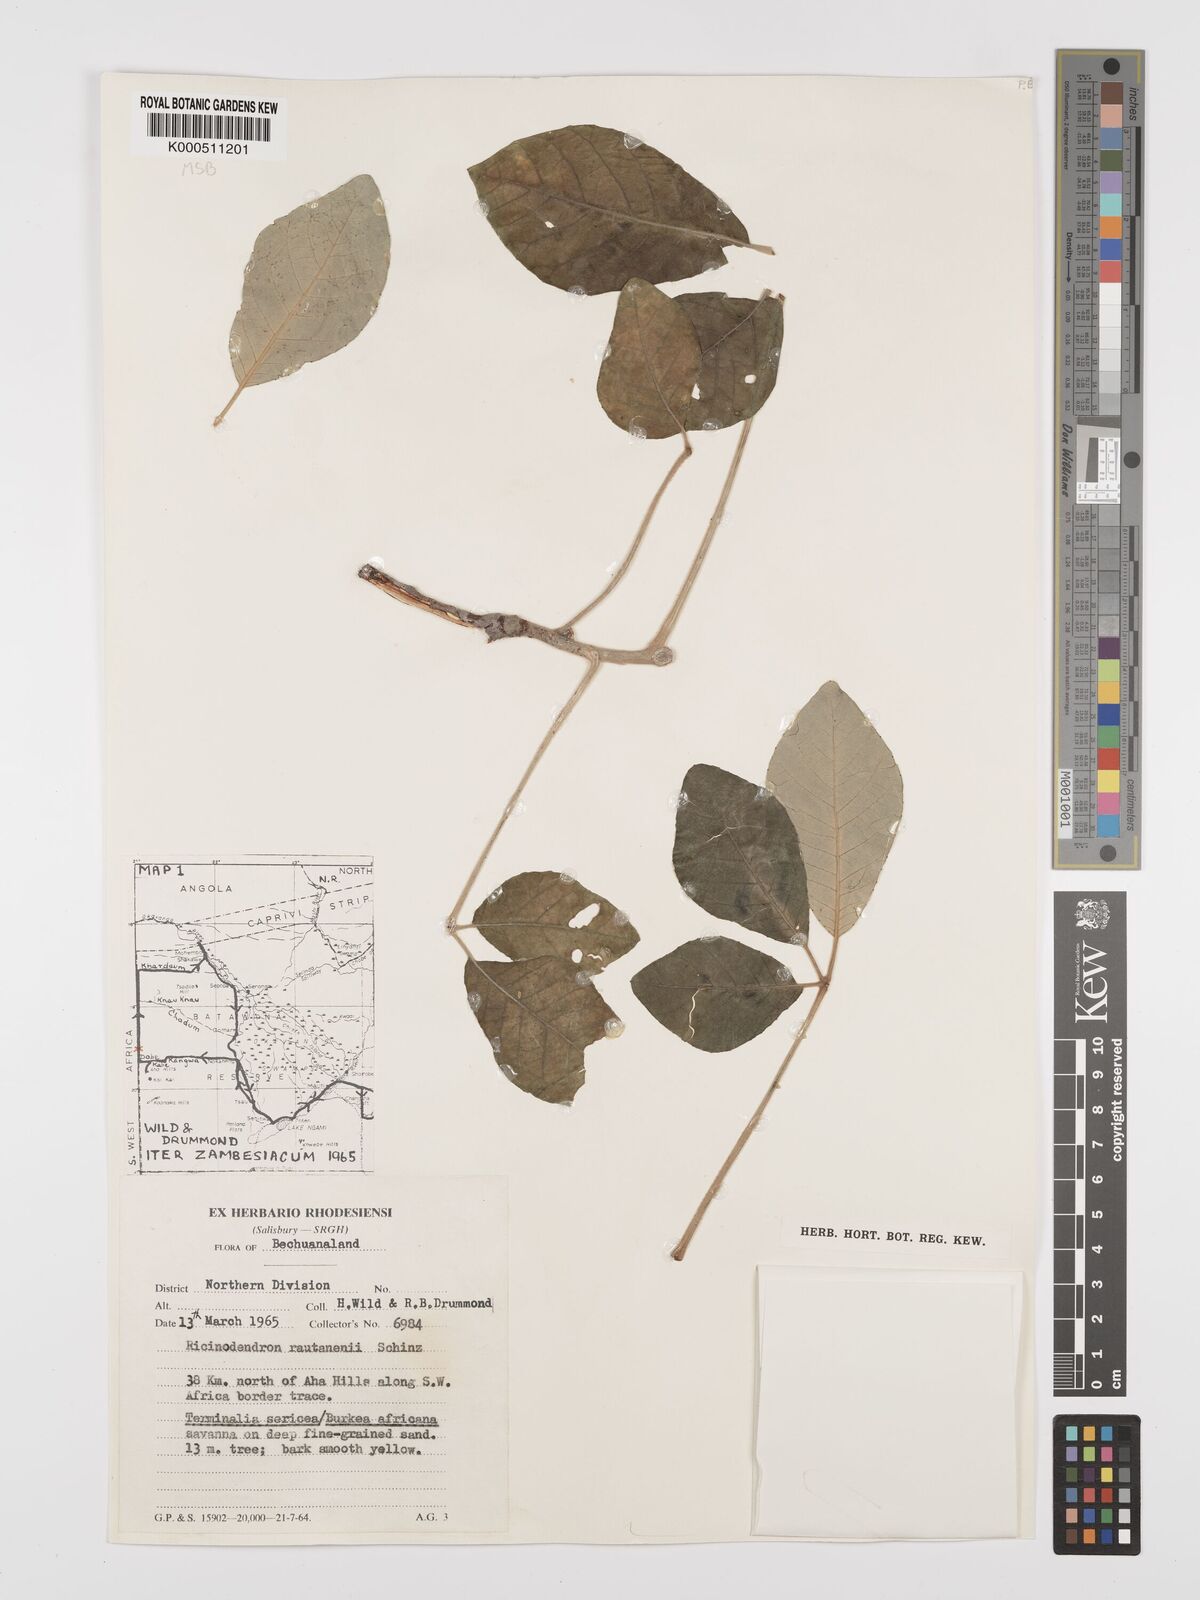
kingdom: Plantae
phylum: Tracheophyta
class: Magnoliopsida
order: Malpighiales
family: Euphorbiaceae
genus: Schinziophyton
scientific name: Schinziophyton rautanenii
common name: Manketti
